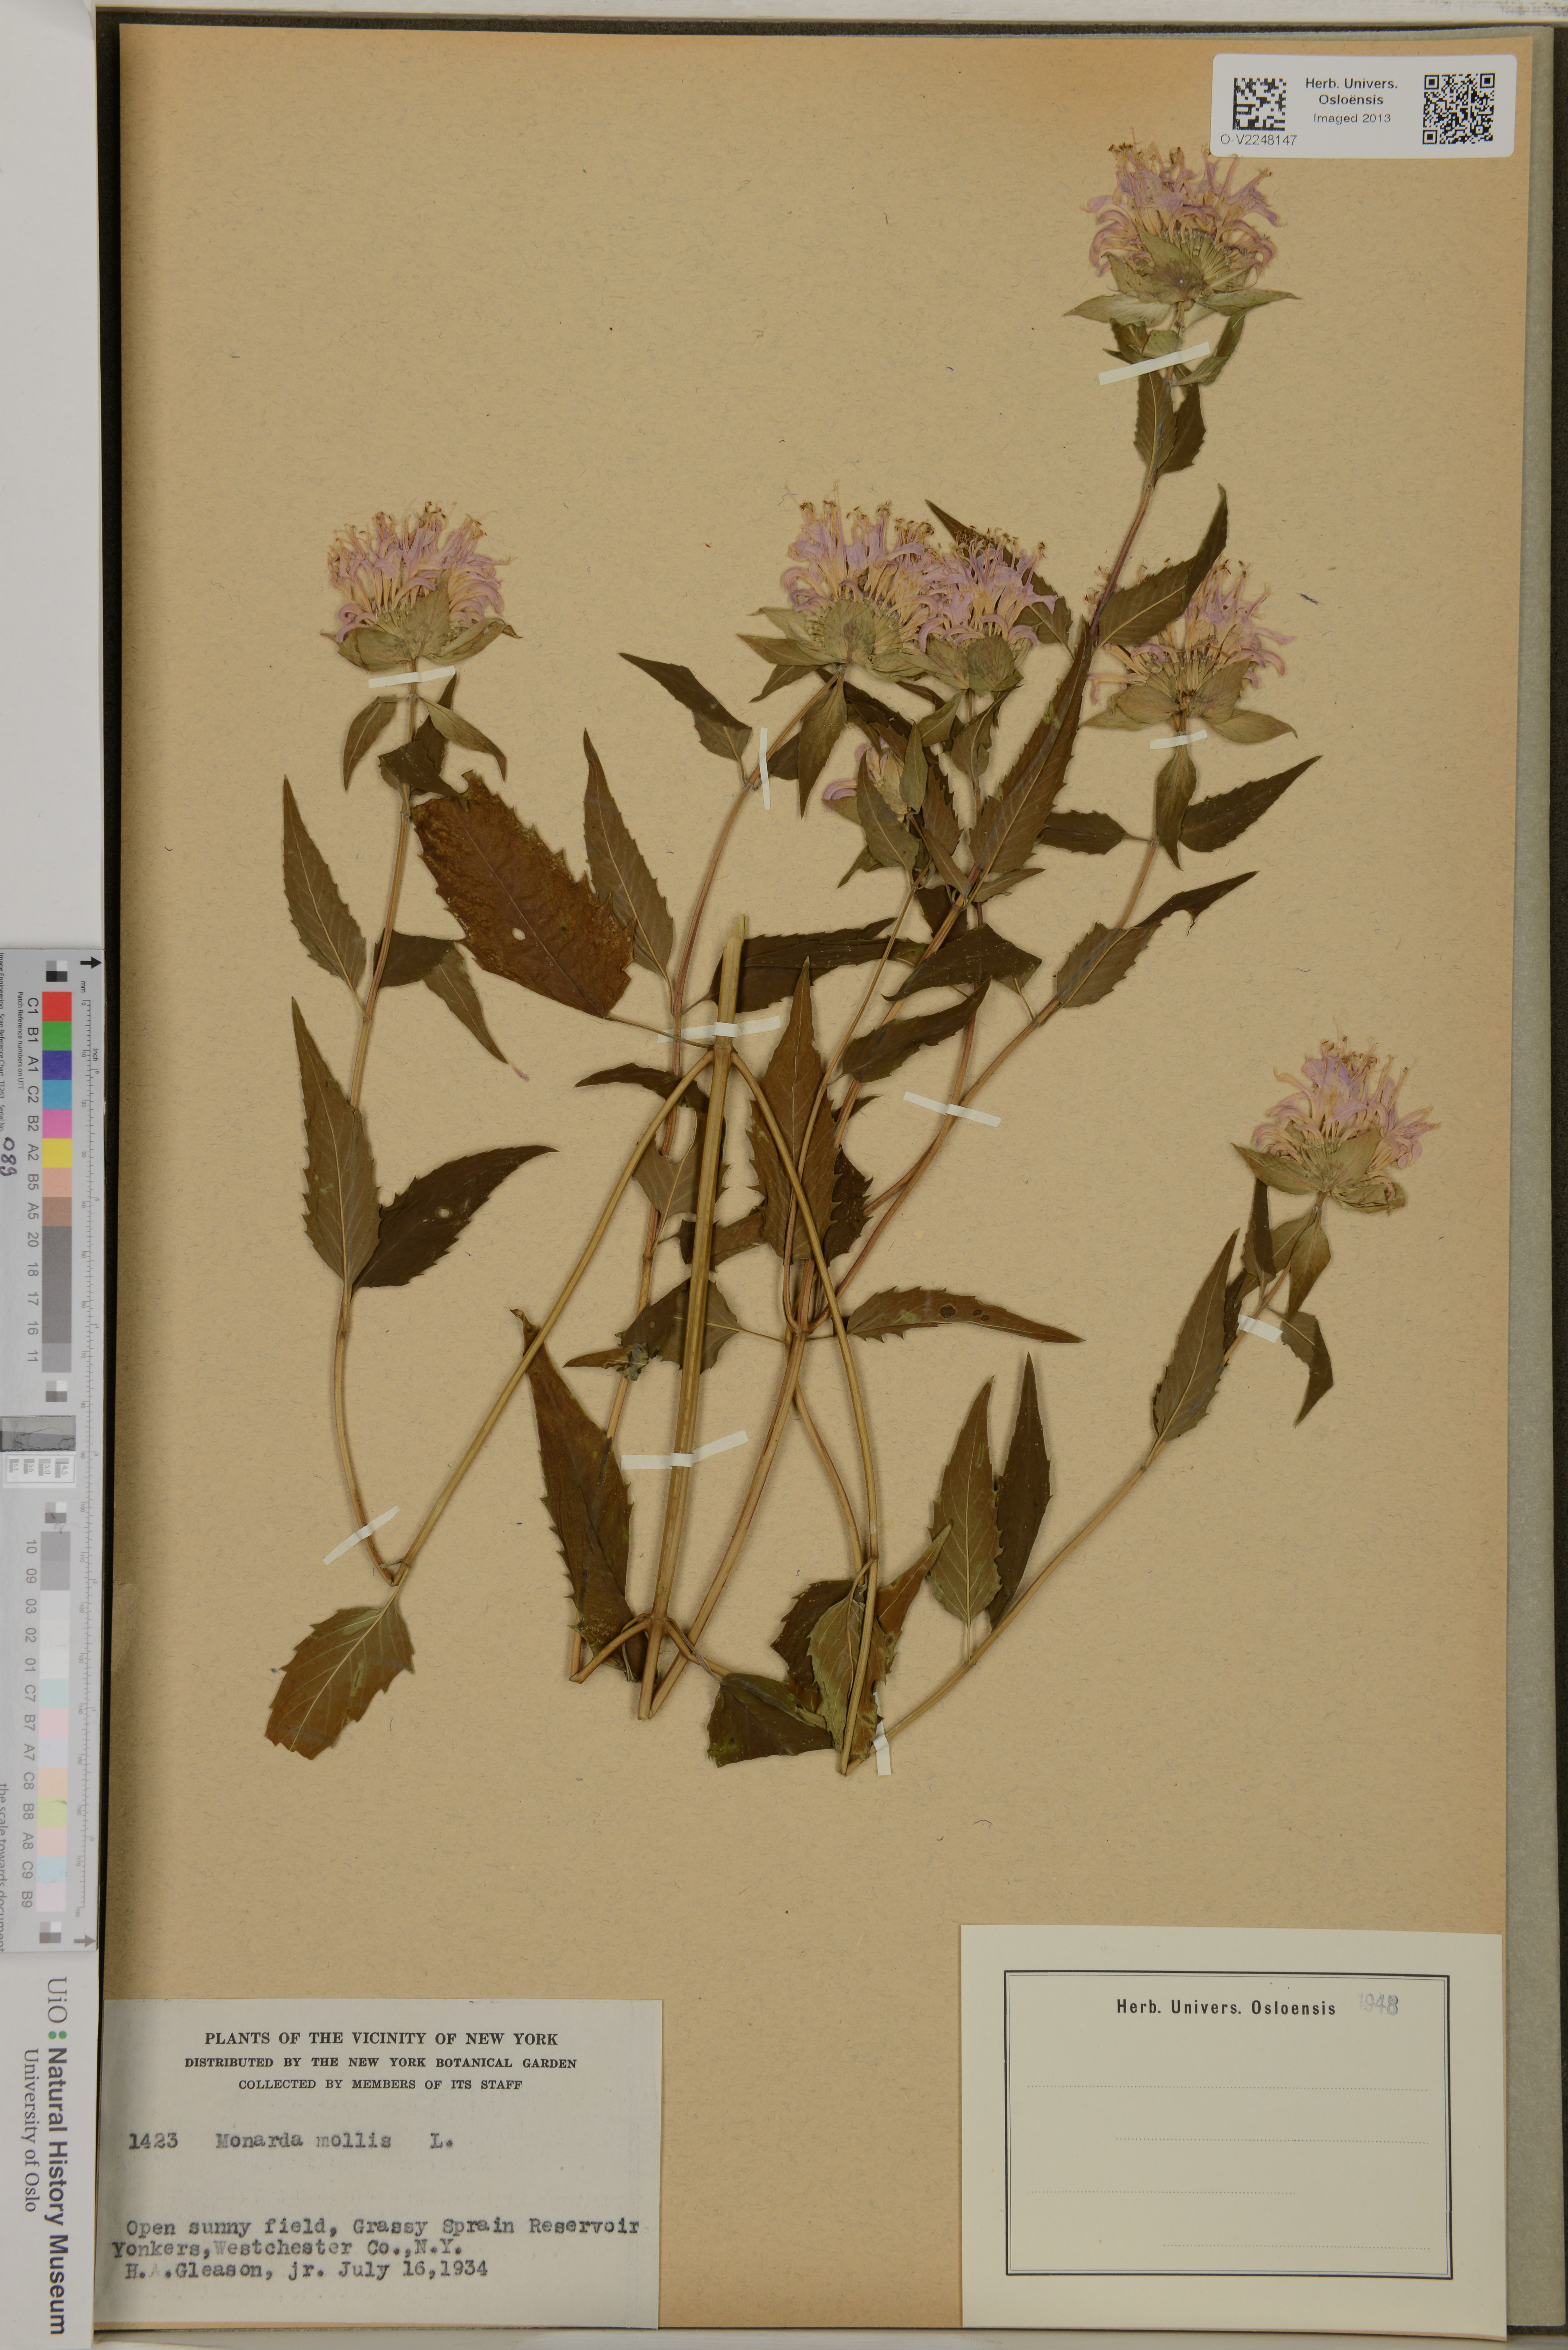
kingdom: Plantae
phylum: Tracheophyta
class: Magnoliopsida
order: Lamiales
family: Lamiaceae
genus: Monarda
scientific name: Monarda fistulosa
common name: Purple beebalm
